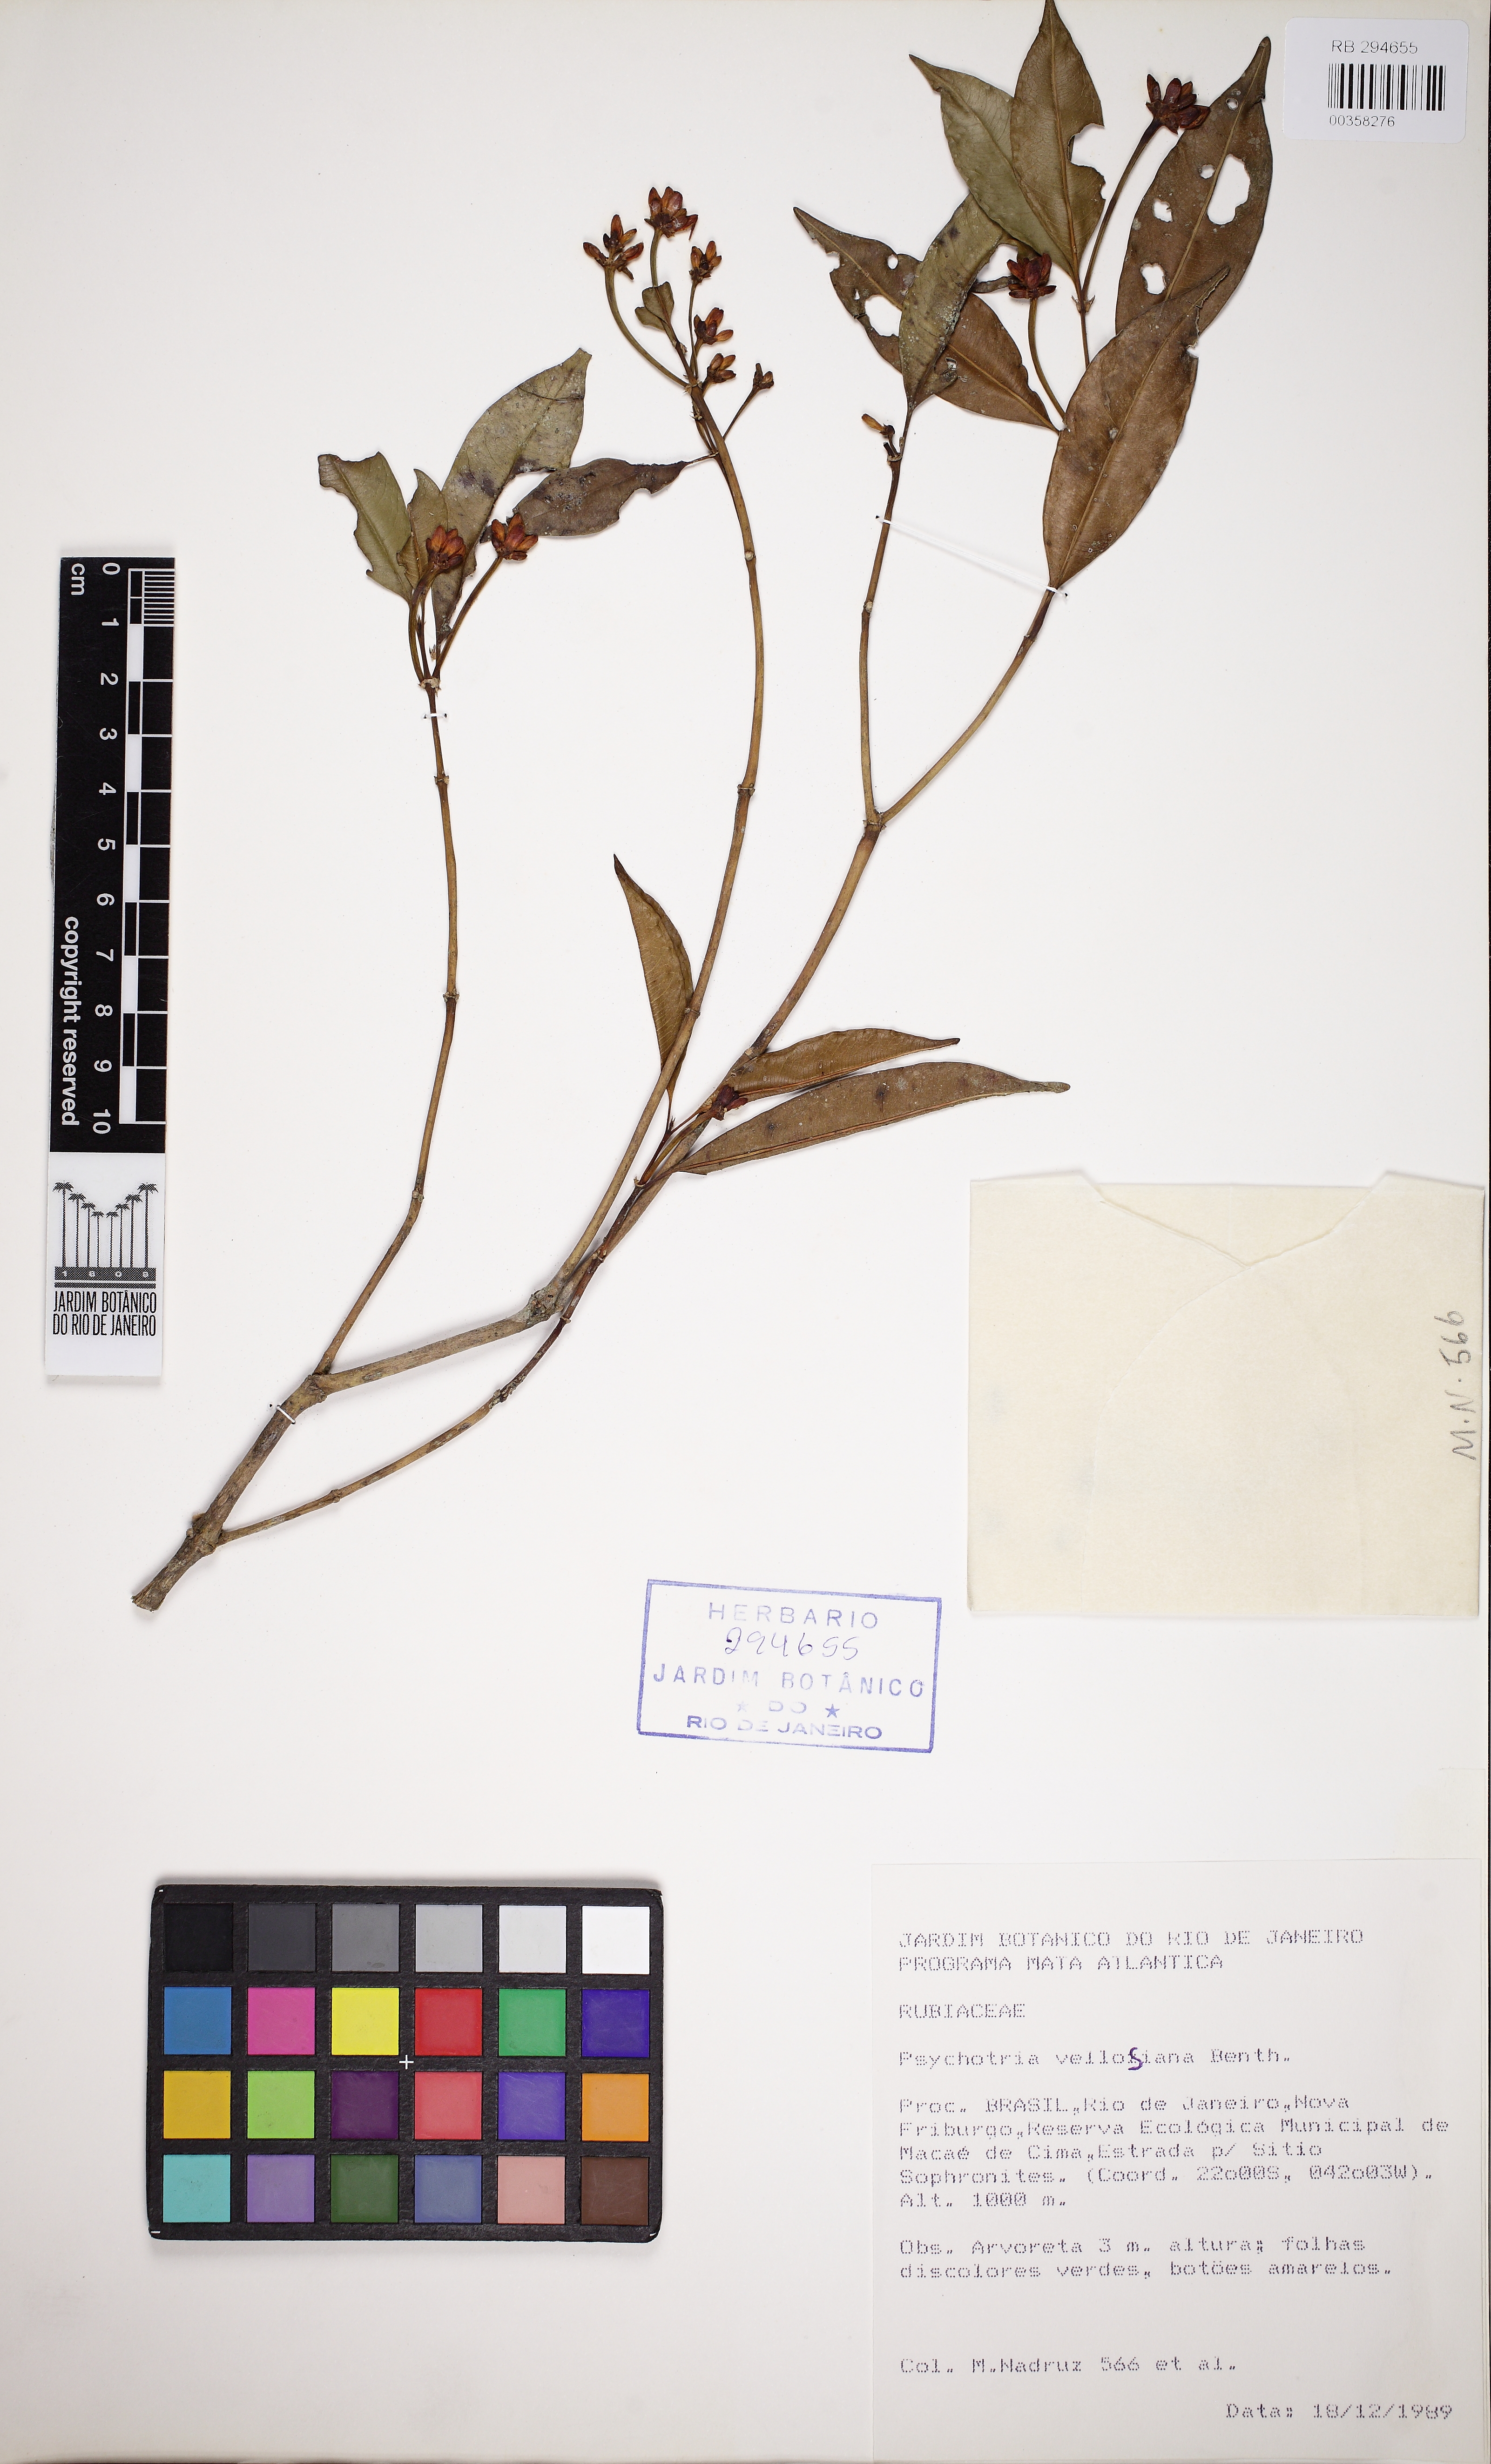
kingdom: Plantae
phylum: Tracheophyta
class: Magnoliopsida
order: Gentianales
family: Rubiaceae
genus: Palicourea
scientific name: Palicourea sessilis
